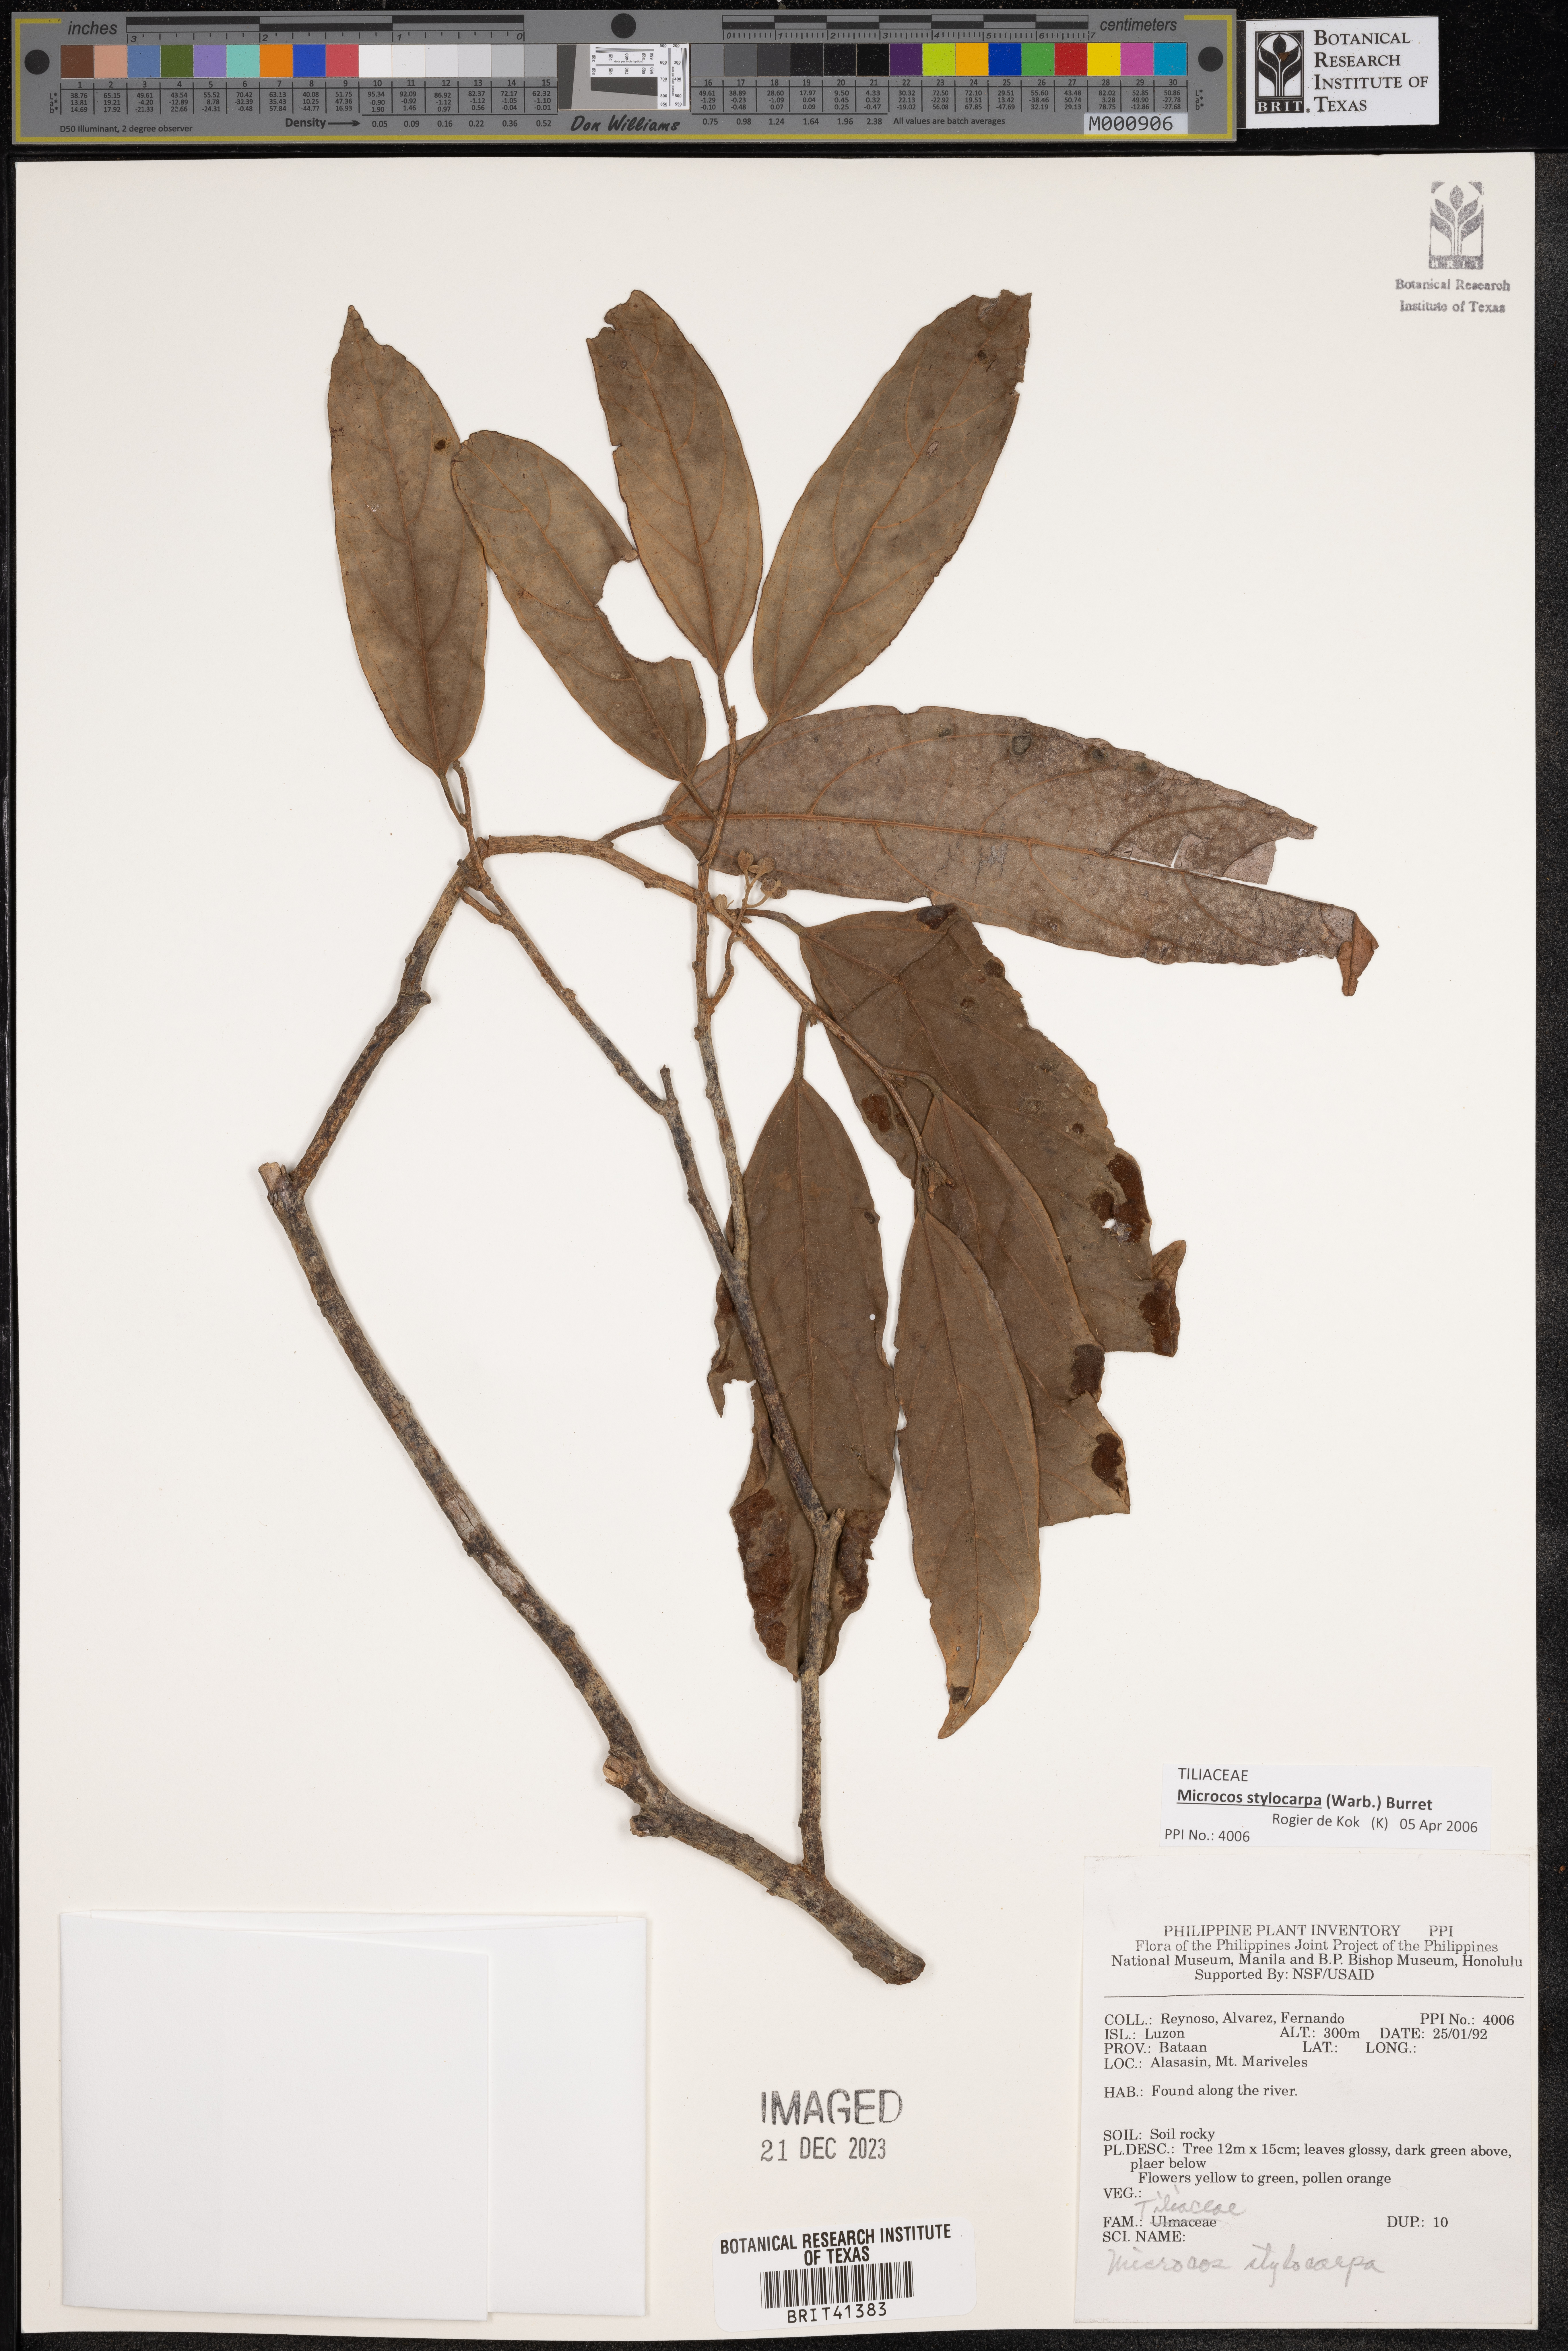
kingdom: Plantae
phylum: Tracheophyta
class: Magnoliopsida
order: Malvales
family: Malvaceae
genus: Microcos
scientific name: Microcos triflora
